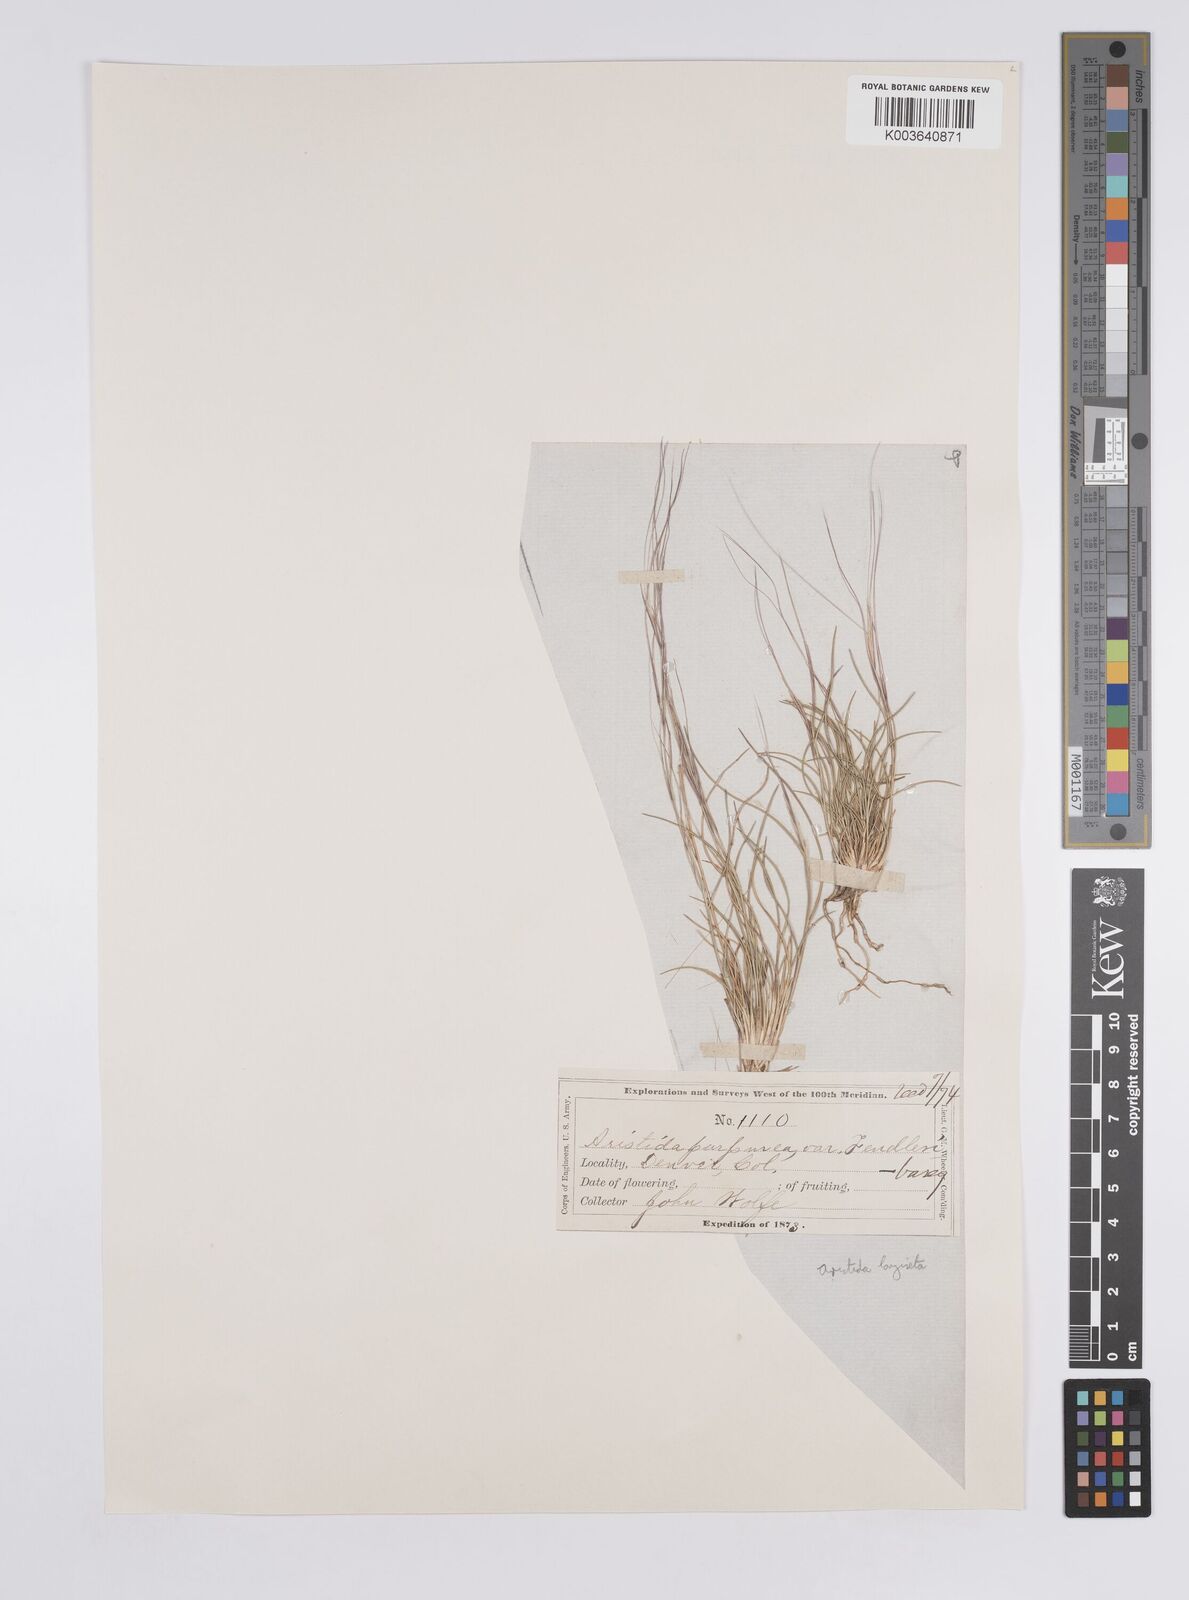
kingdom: Plantae
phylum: Tracheophyta
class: Liliopsida
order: Poales
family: Poaceae
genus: Aristida
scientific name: Aristida purpurea
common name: Purple threeawn
